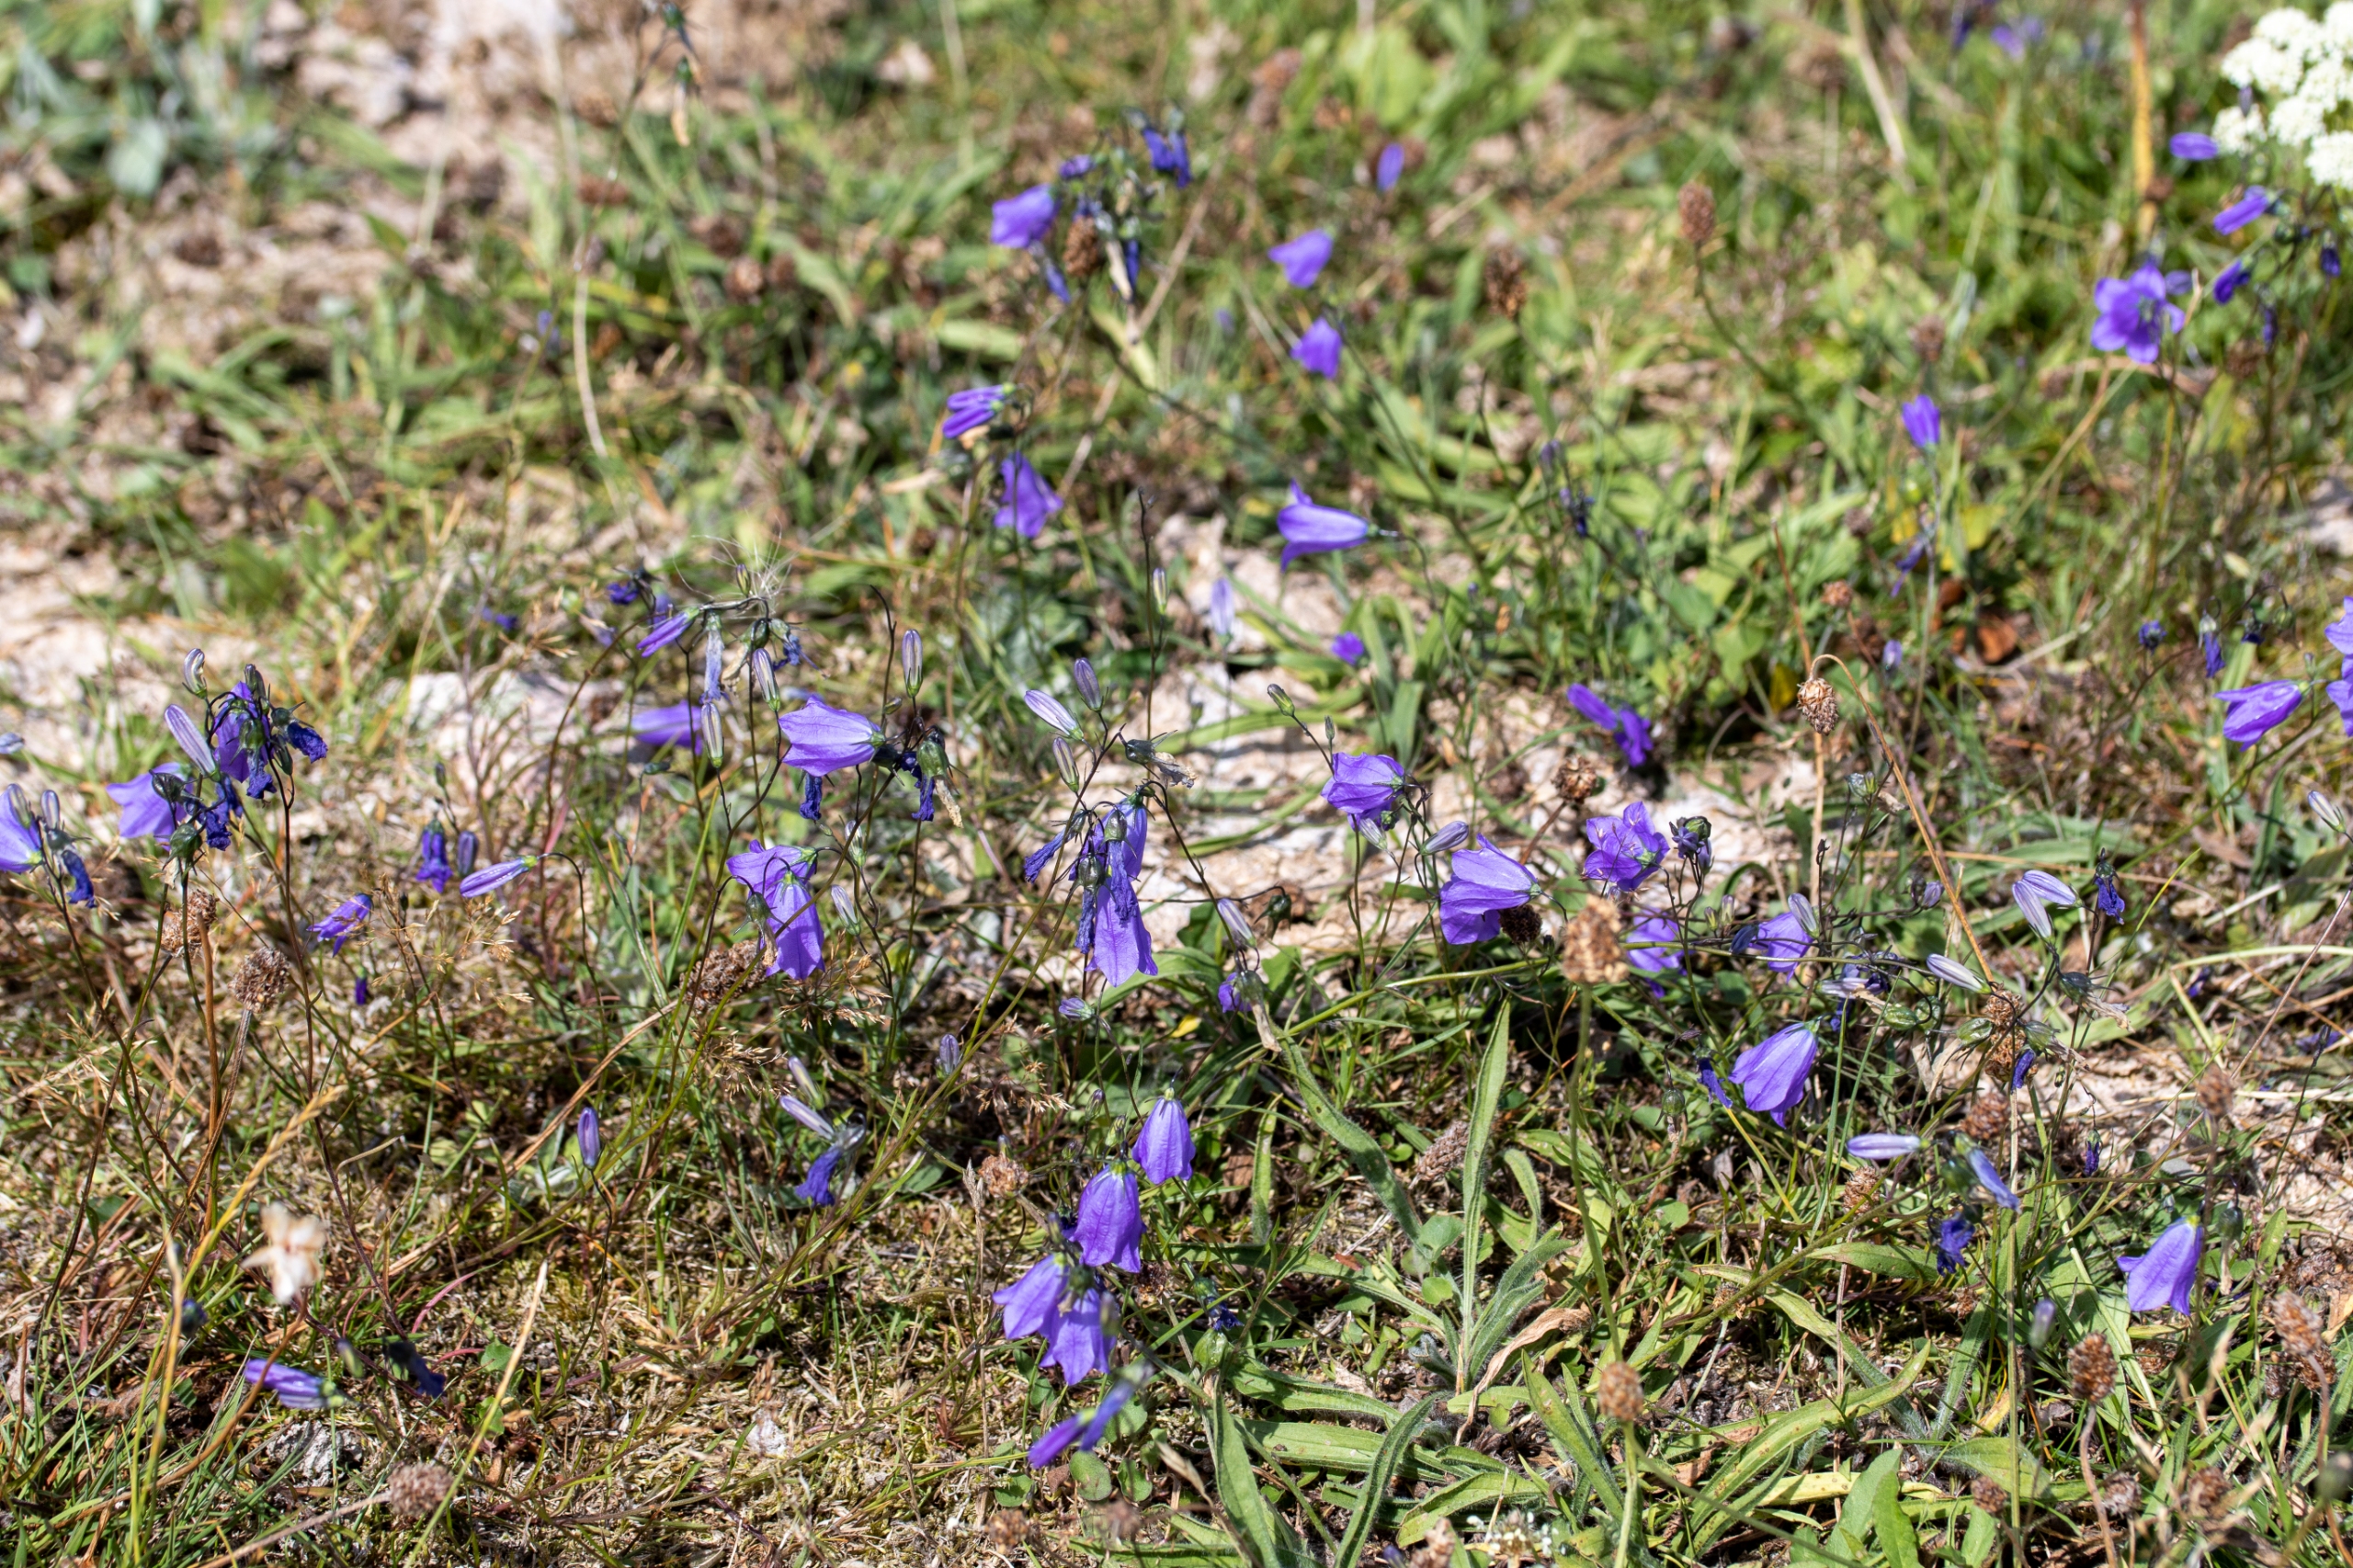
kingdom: Plantae
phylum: Tracheophyta
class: Magnoliopsida
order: Asterales
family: Campanulaceae
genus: Campanula
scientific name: Campanula rotundifolia
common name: Liden klokke
